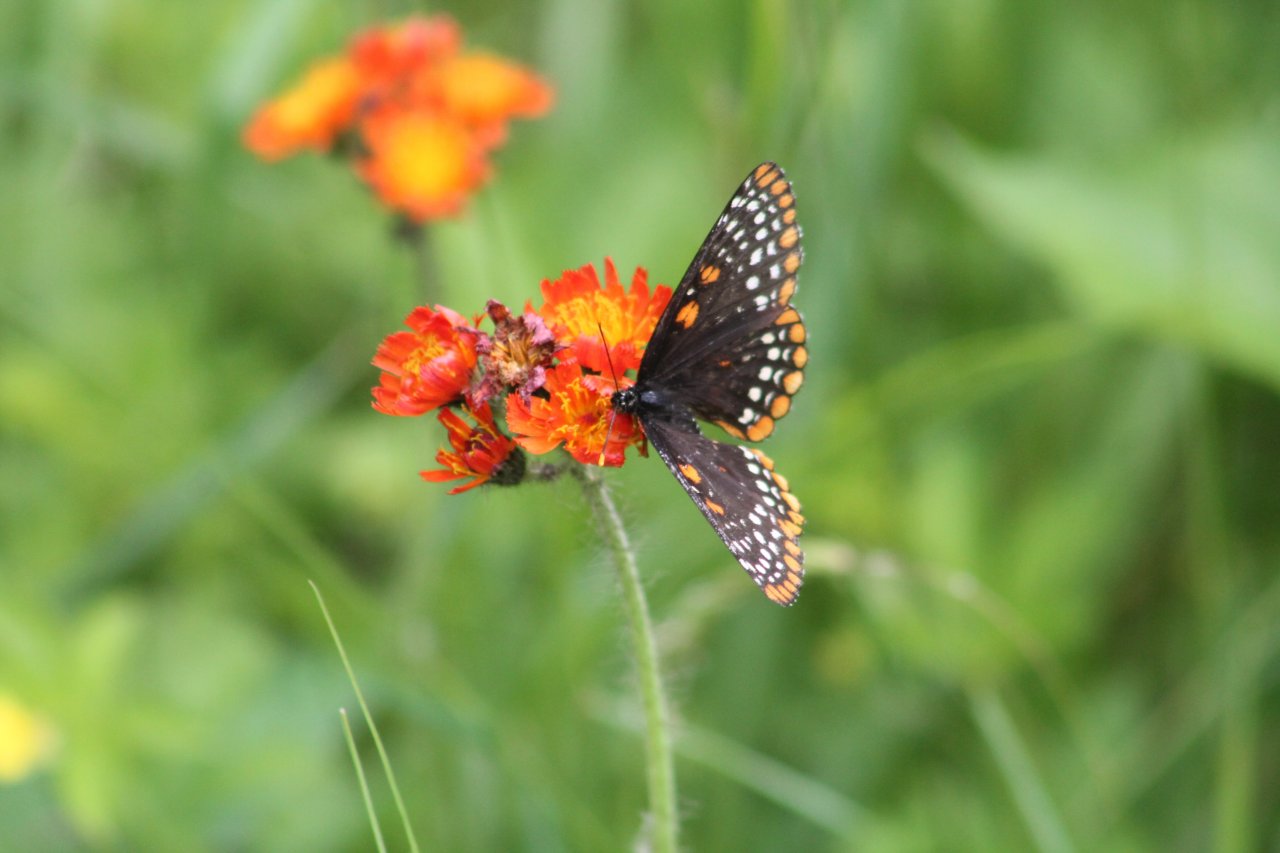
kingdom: Animalia
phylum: Arthropoda
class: Insecta
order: Lepidoptera
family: Nymphalidae
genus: Euphydryas
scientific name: Euphydryas phaeton
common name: Baltimore Checkerspot
